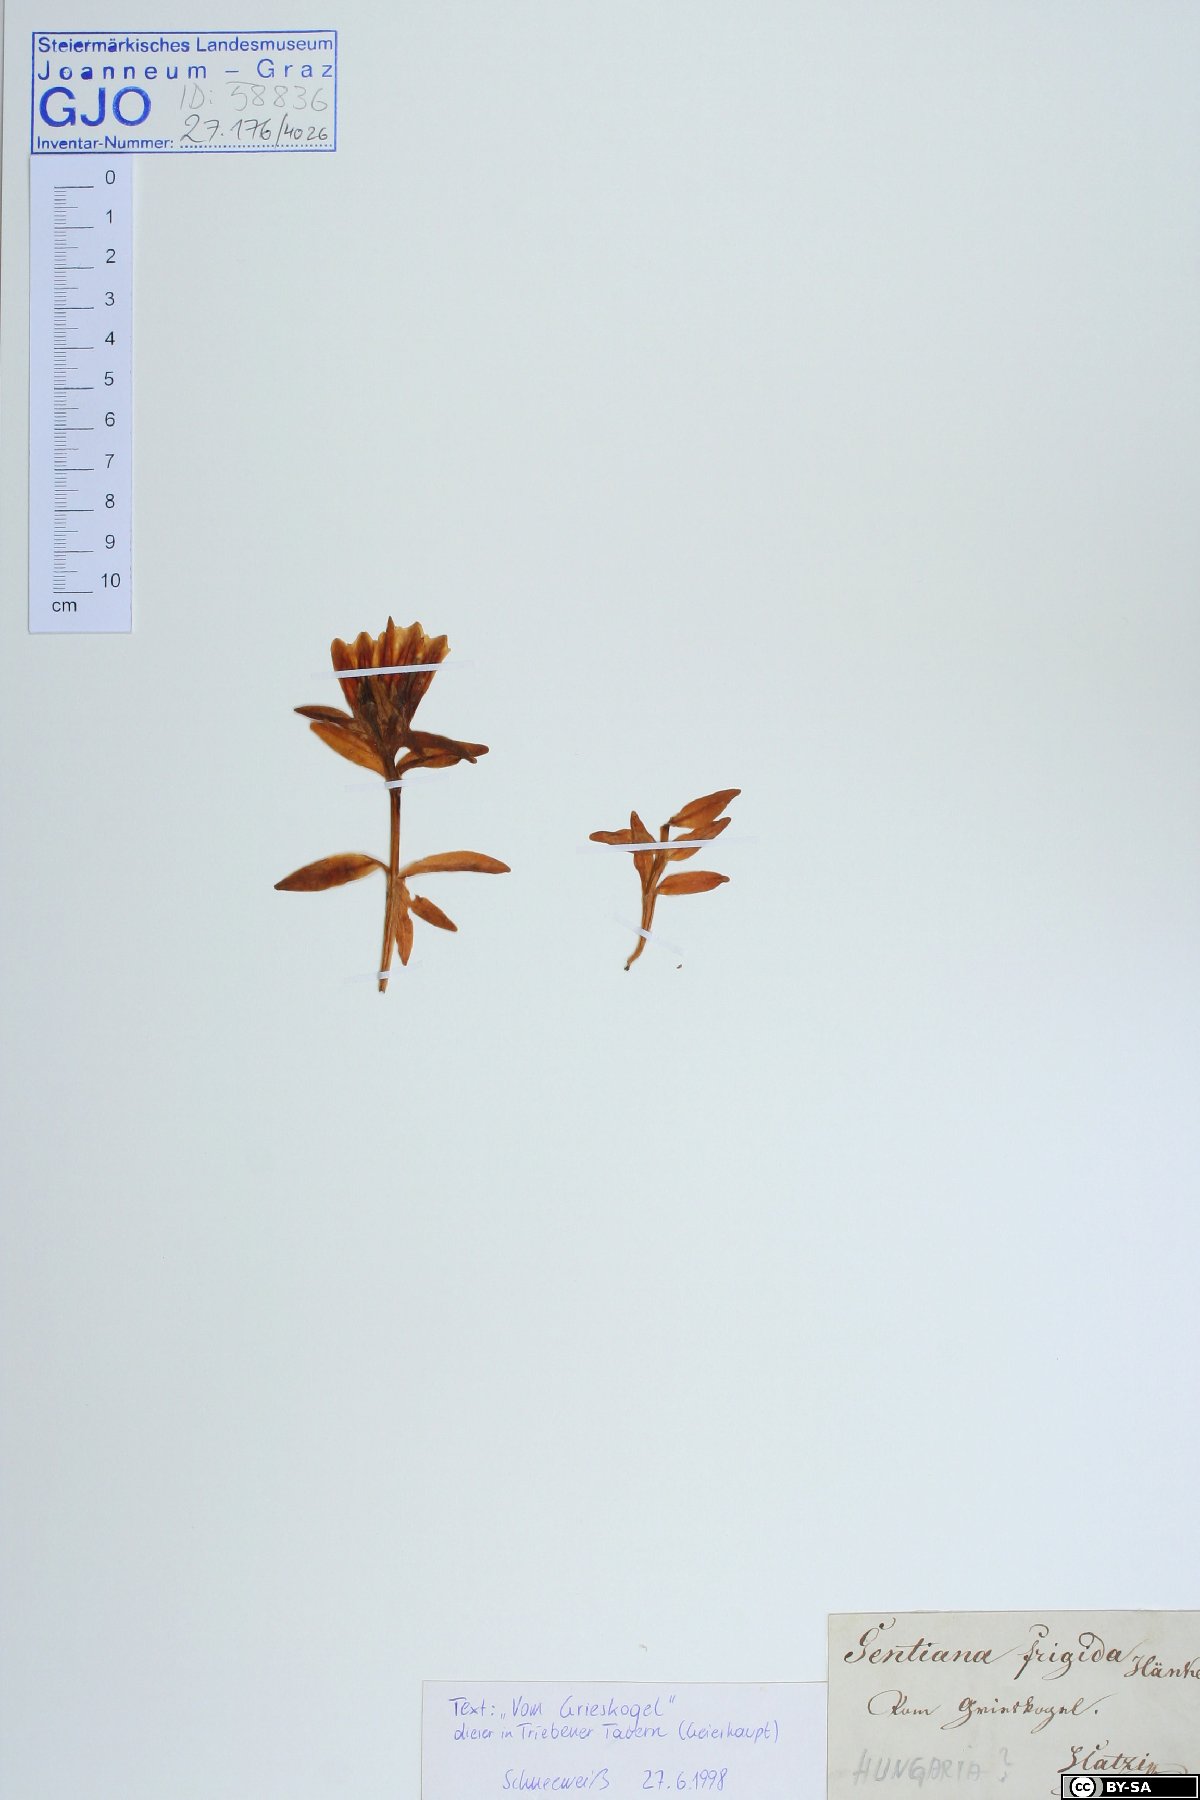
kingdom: Plantae
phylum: Tracheophyta
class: Magnoliopsida
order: Gentianales
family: Gentianaceae
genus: Gentiana
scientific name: Gentiana frigida
